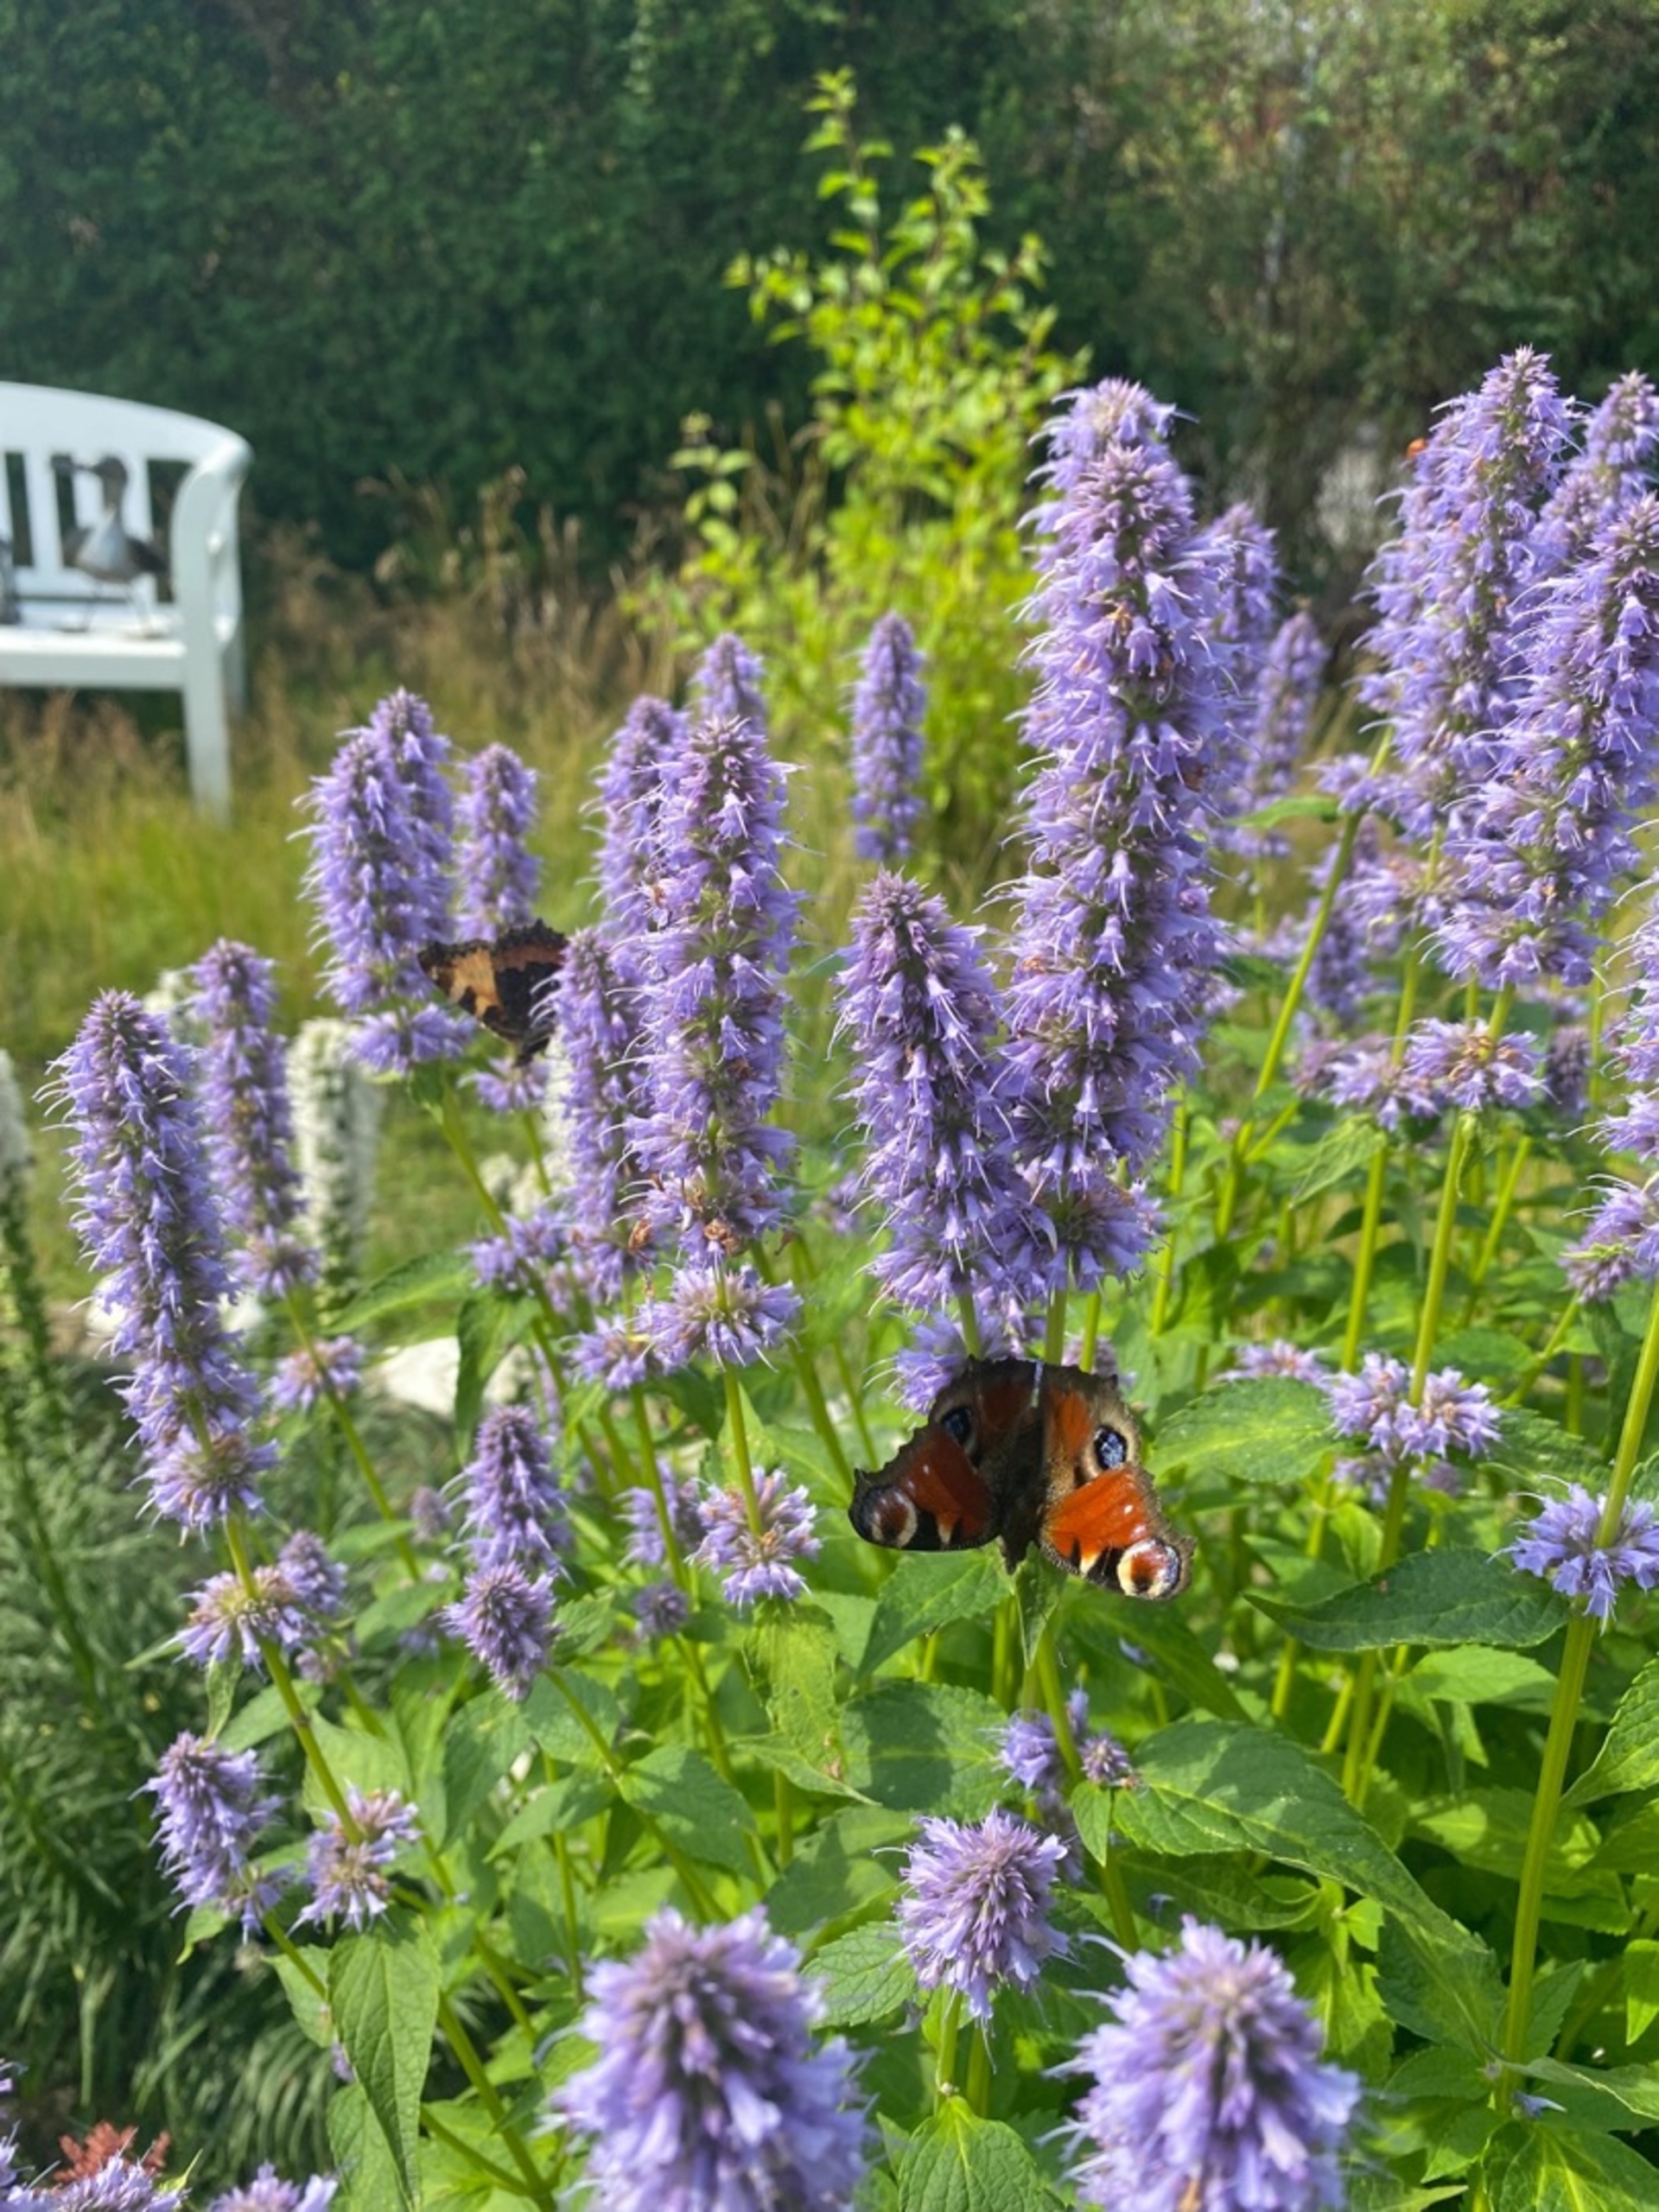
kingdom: Animalia
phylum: Arthropoda
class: Insecta
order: Lepidoptera
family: Nymphalidae
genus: Aglais
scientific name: Aglais io
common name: Dagpåfugleøje
